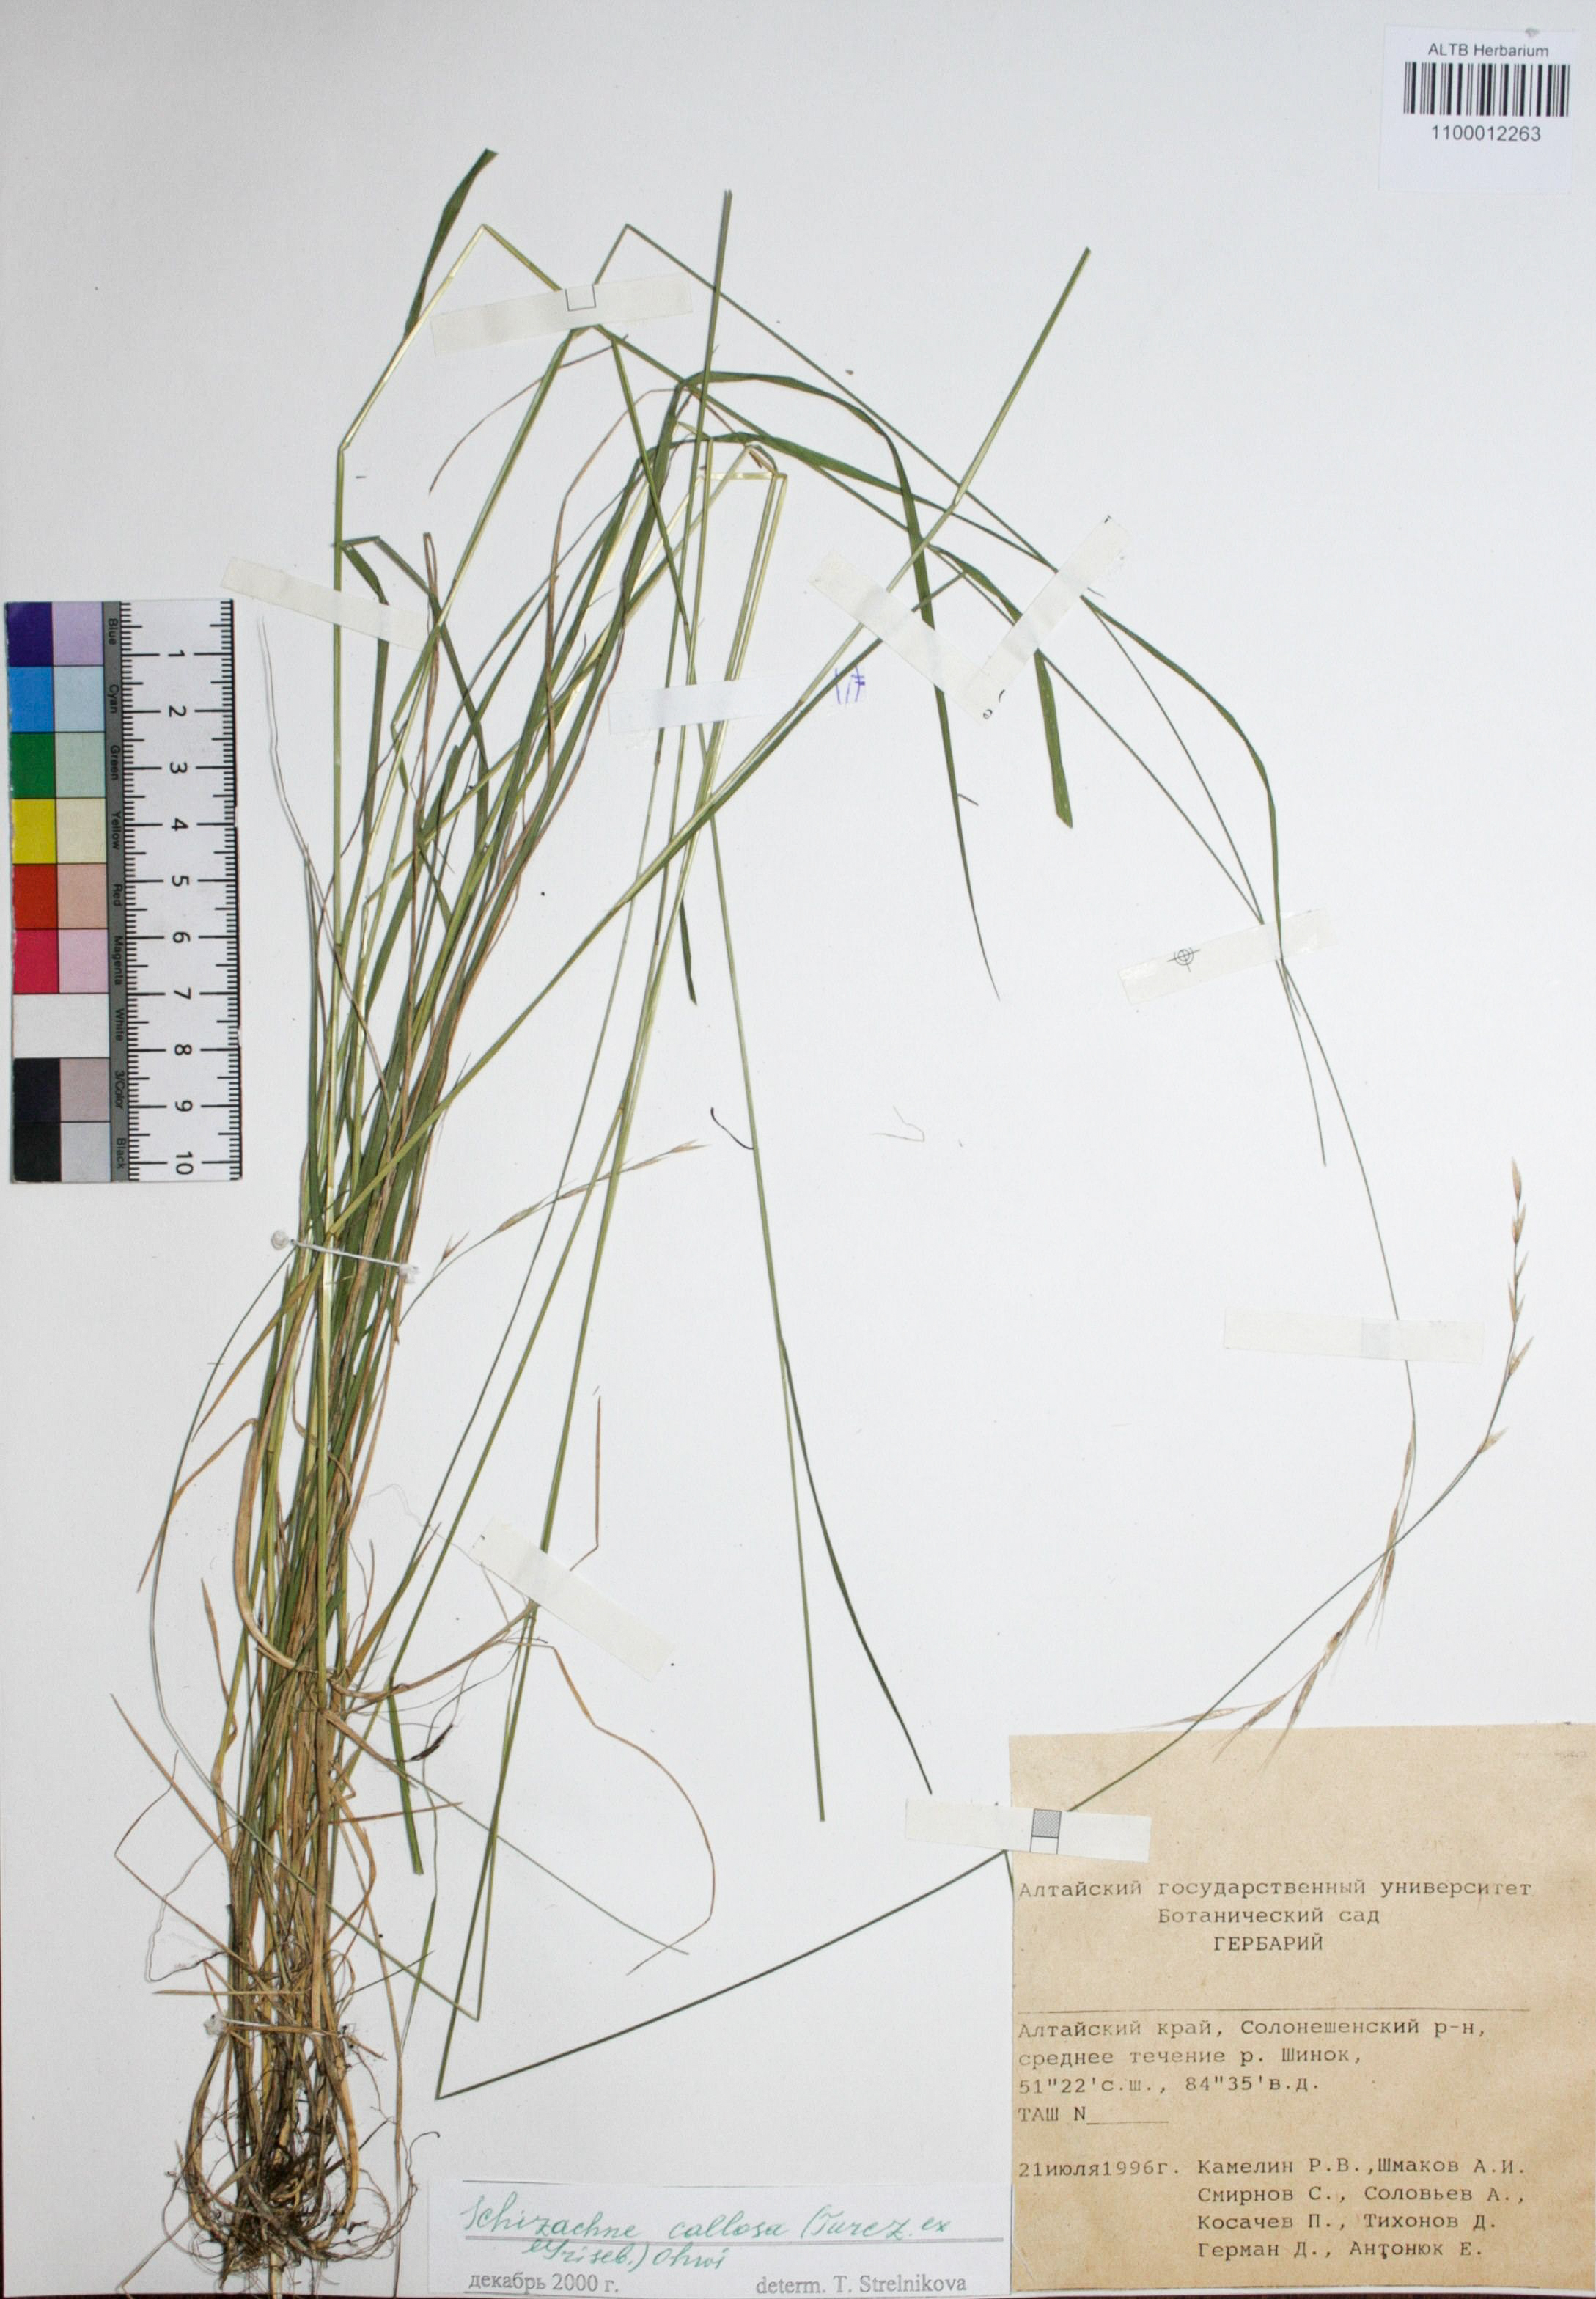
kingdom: Plantae
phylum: Tracheophyta
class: Liliopsida
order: Poales
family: Poaceae
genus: Schizachne
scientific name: Schizachne purpurascens
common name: False melic
